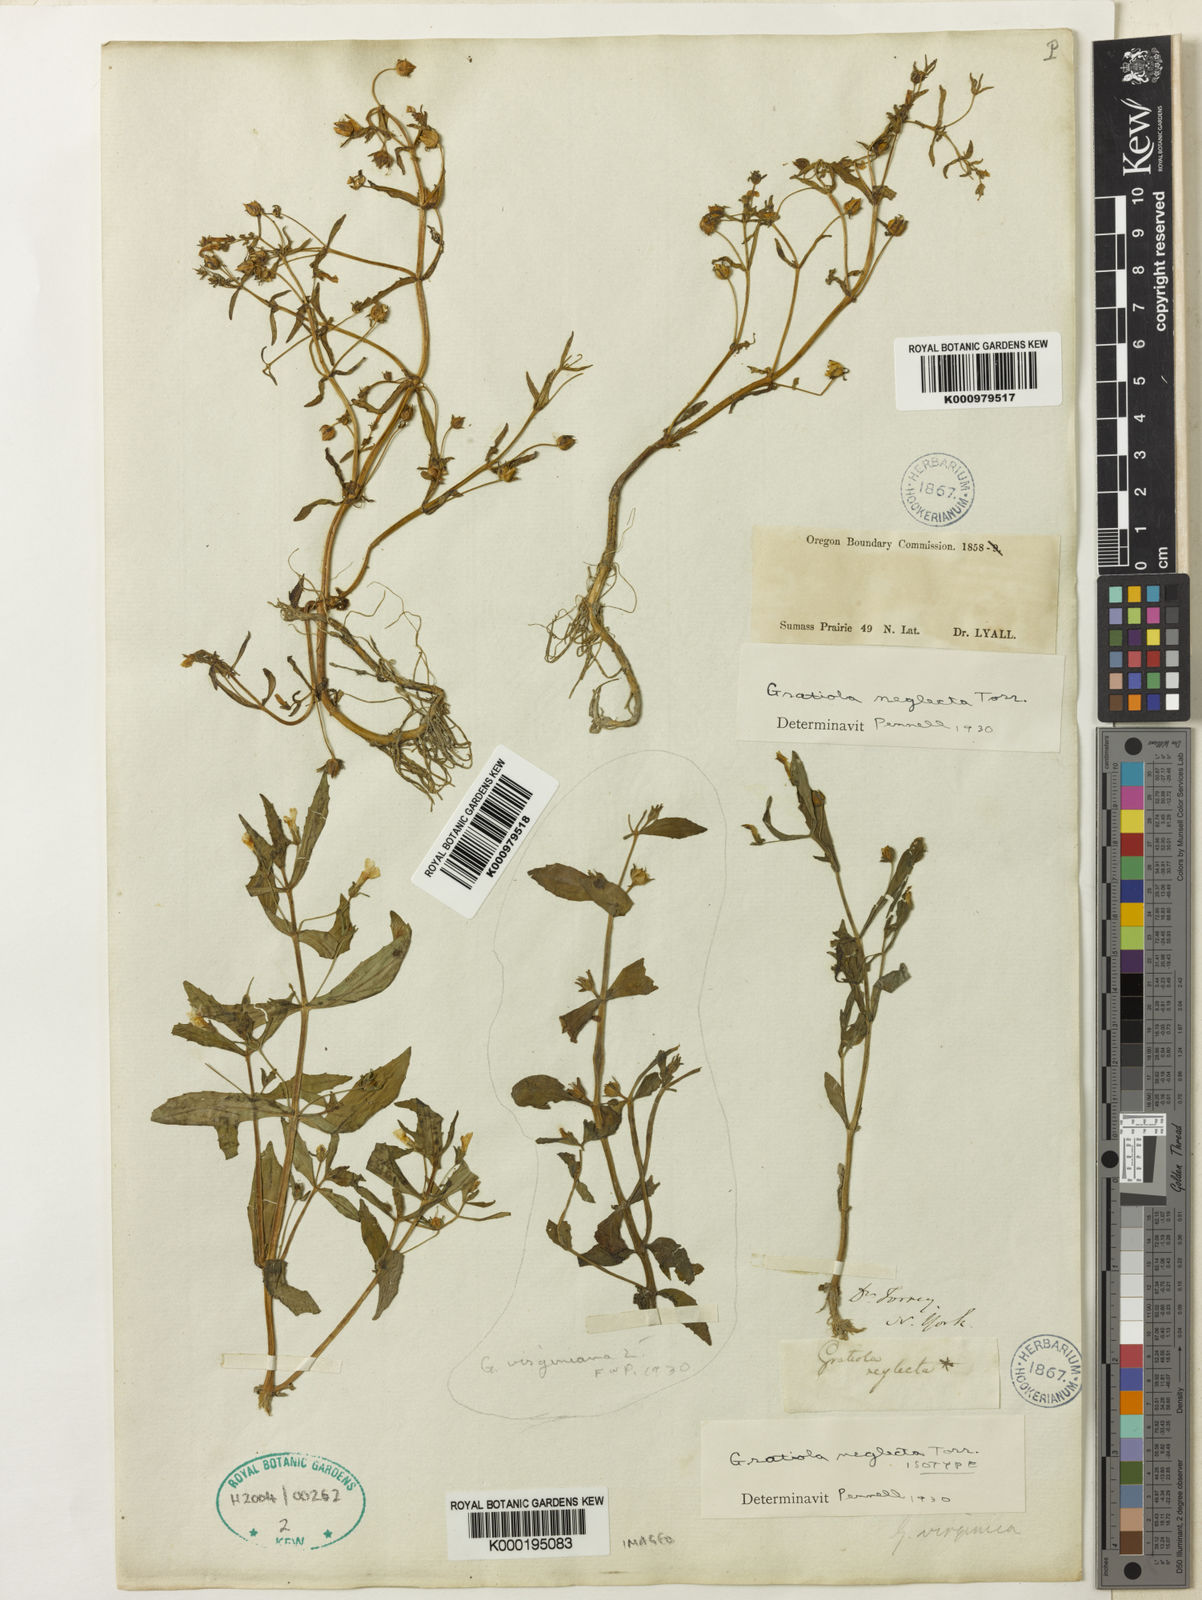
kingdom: Plantae
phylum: Tracheophyta
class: Magnoliopsida
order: Lamiales
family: Plantaginaceae
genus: Gratiola
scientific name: Gratiola neglecta
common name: American hedge-hyssop
